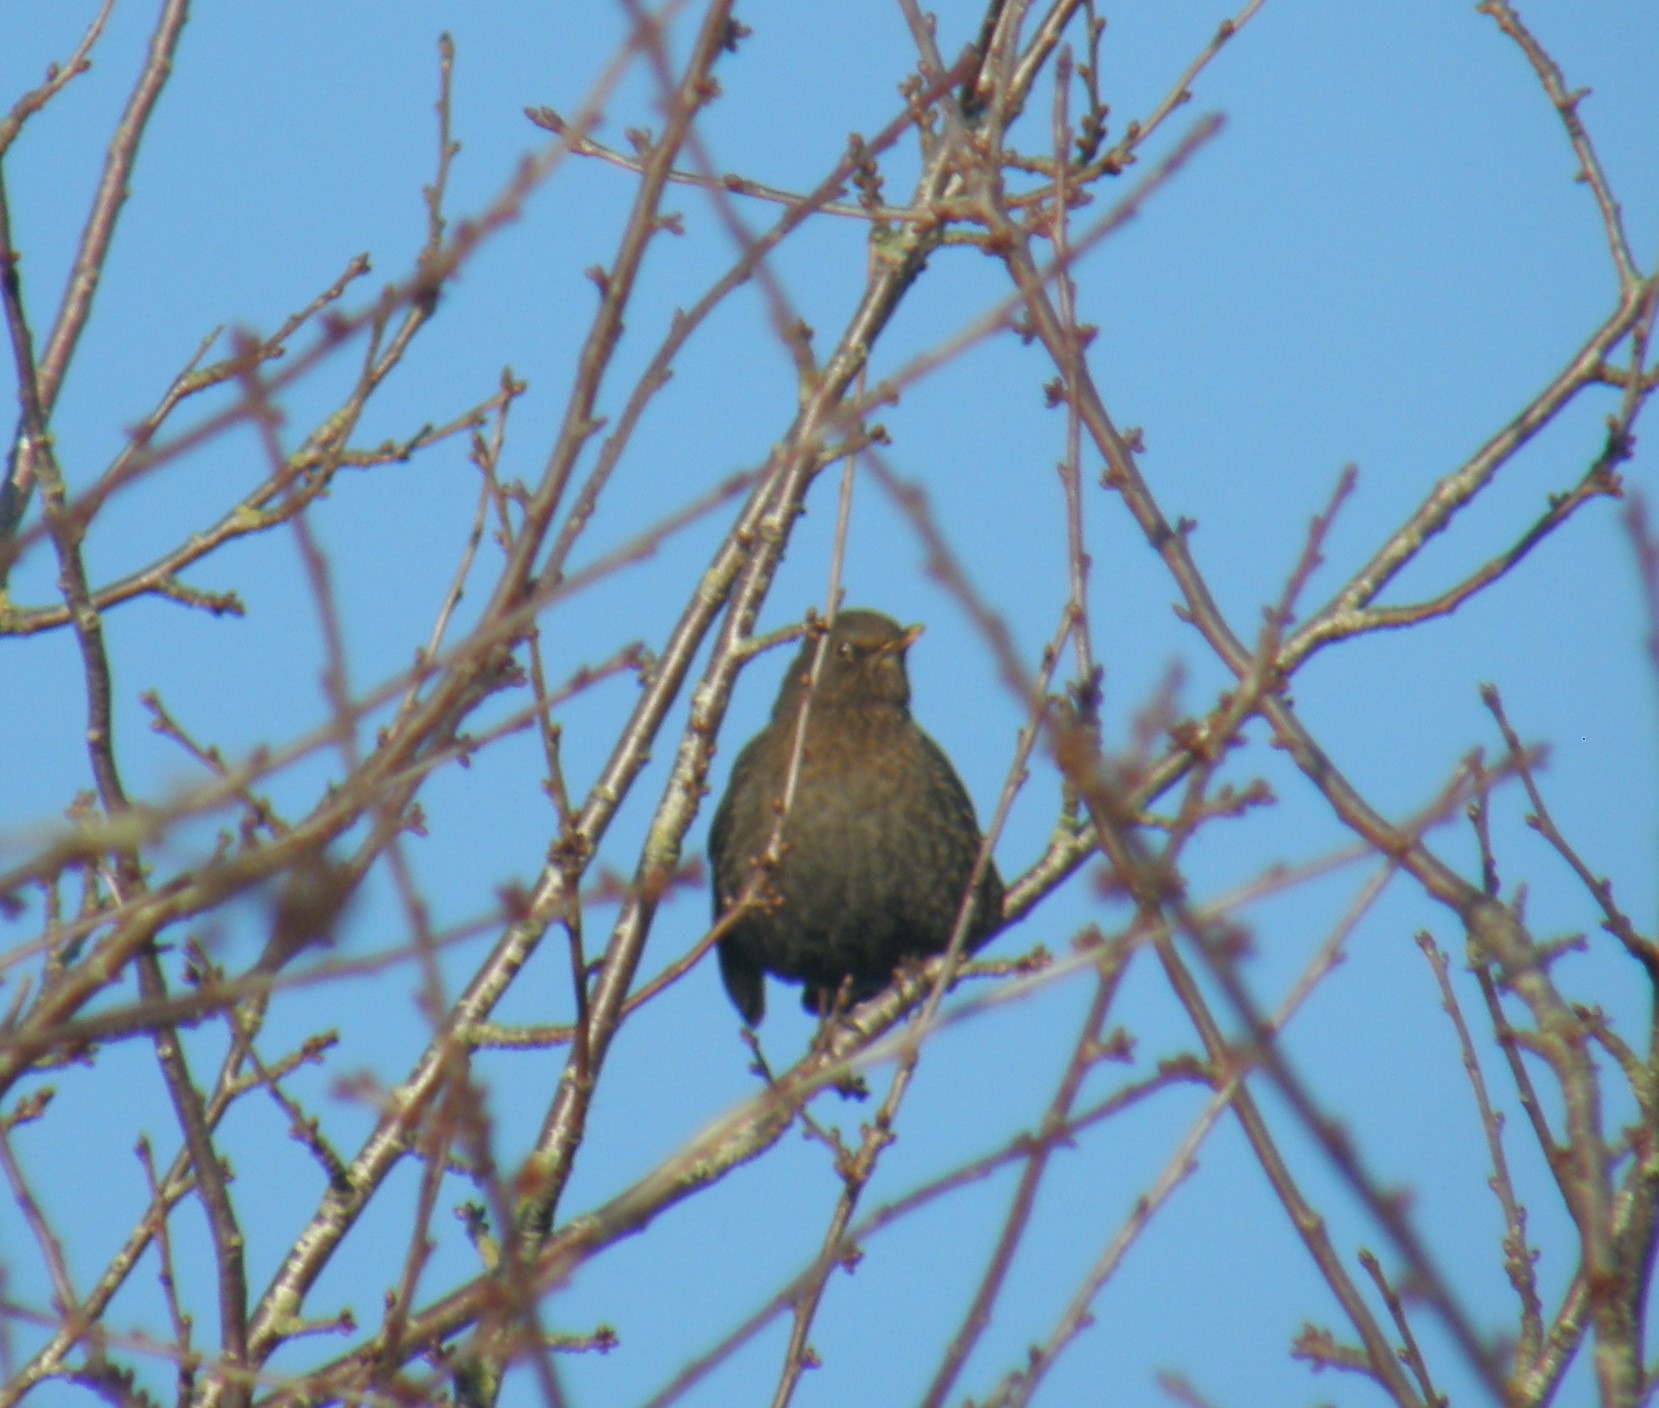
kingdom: Animalia
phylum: Chordata
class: Aves
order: Passeriformes
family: Turdidae
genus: Turdus
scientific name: Turdus merula
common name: Solsort
